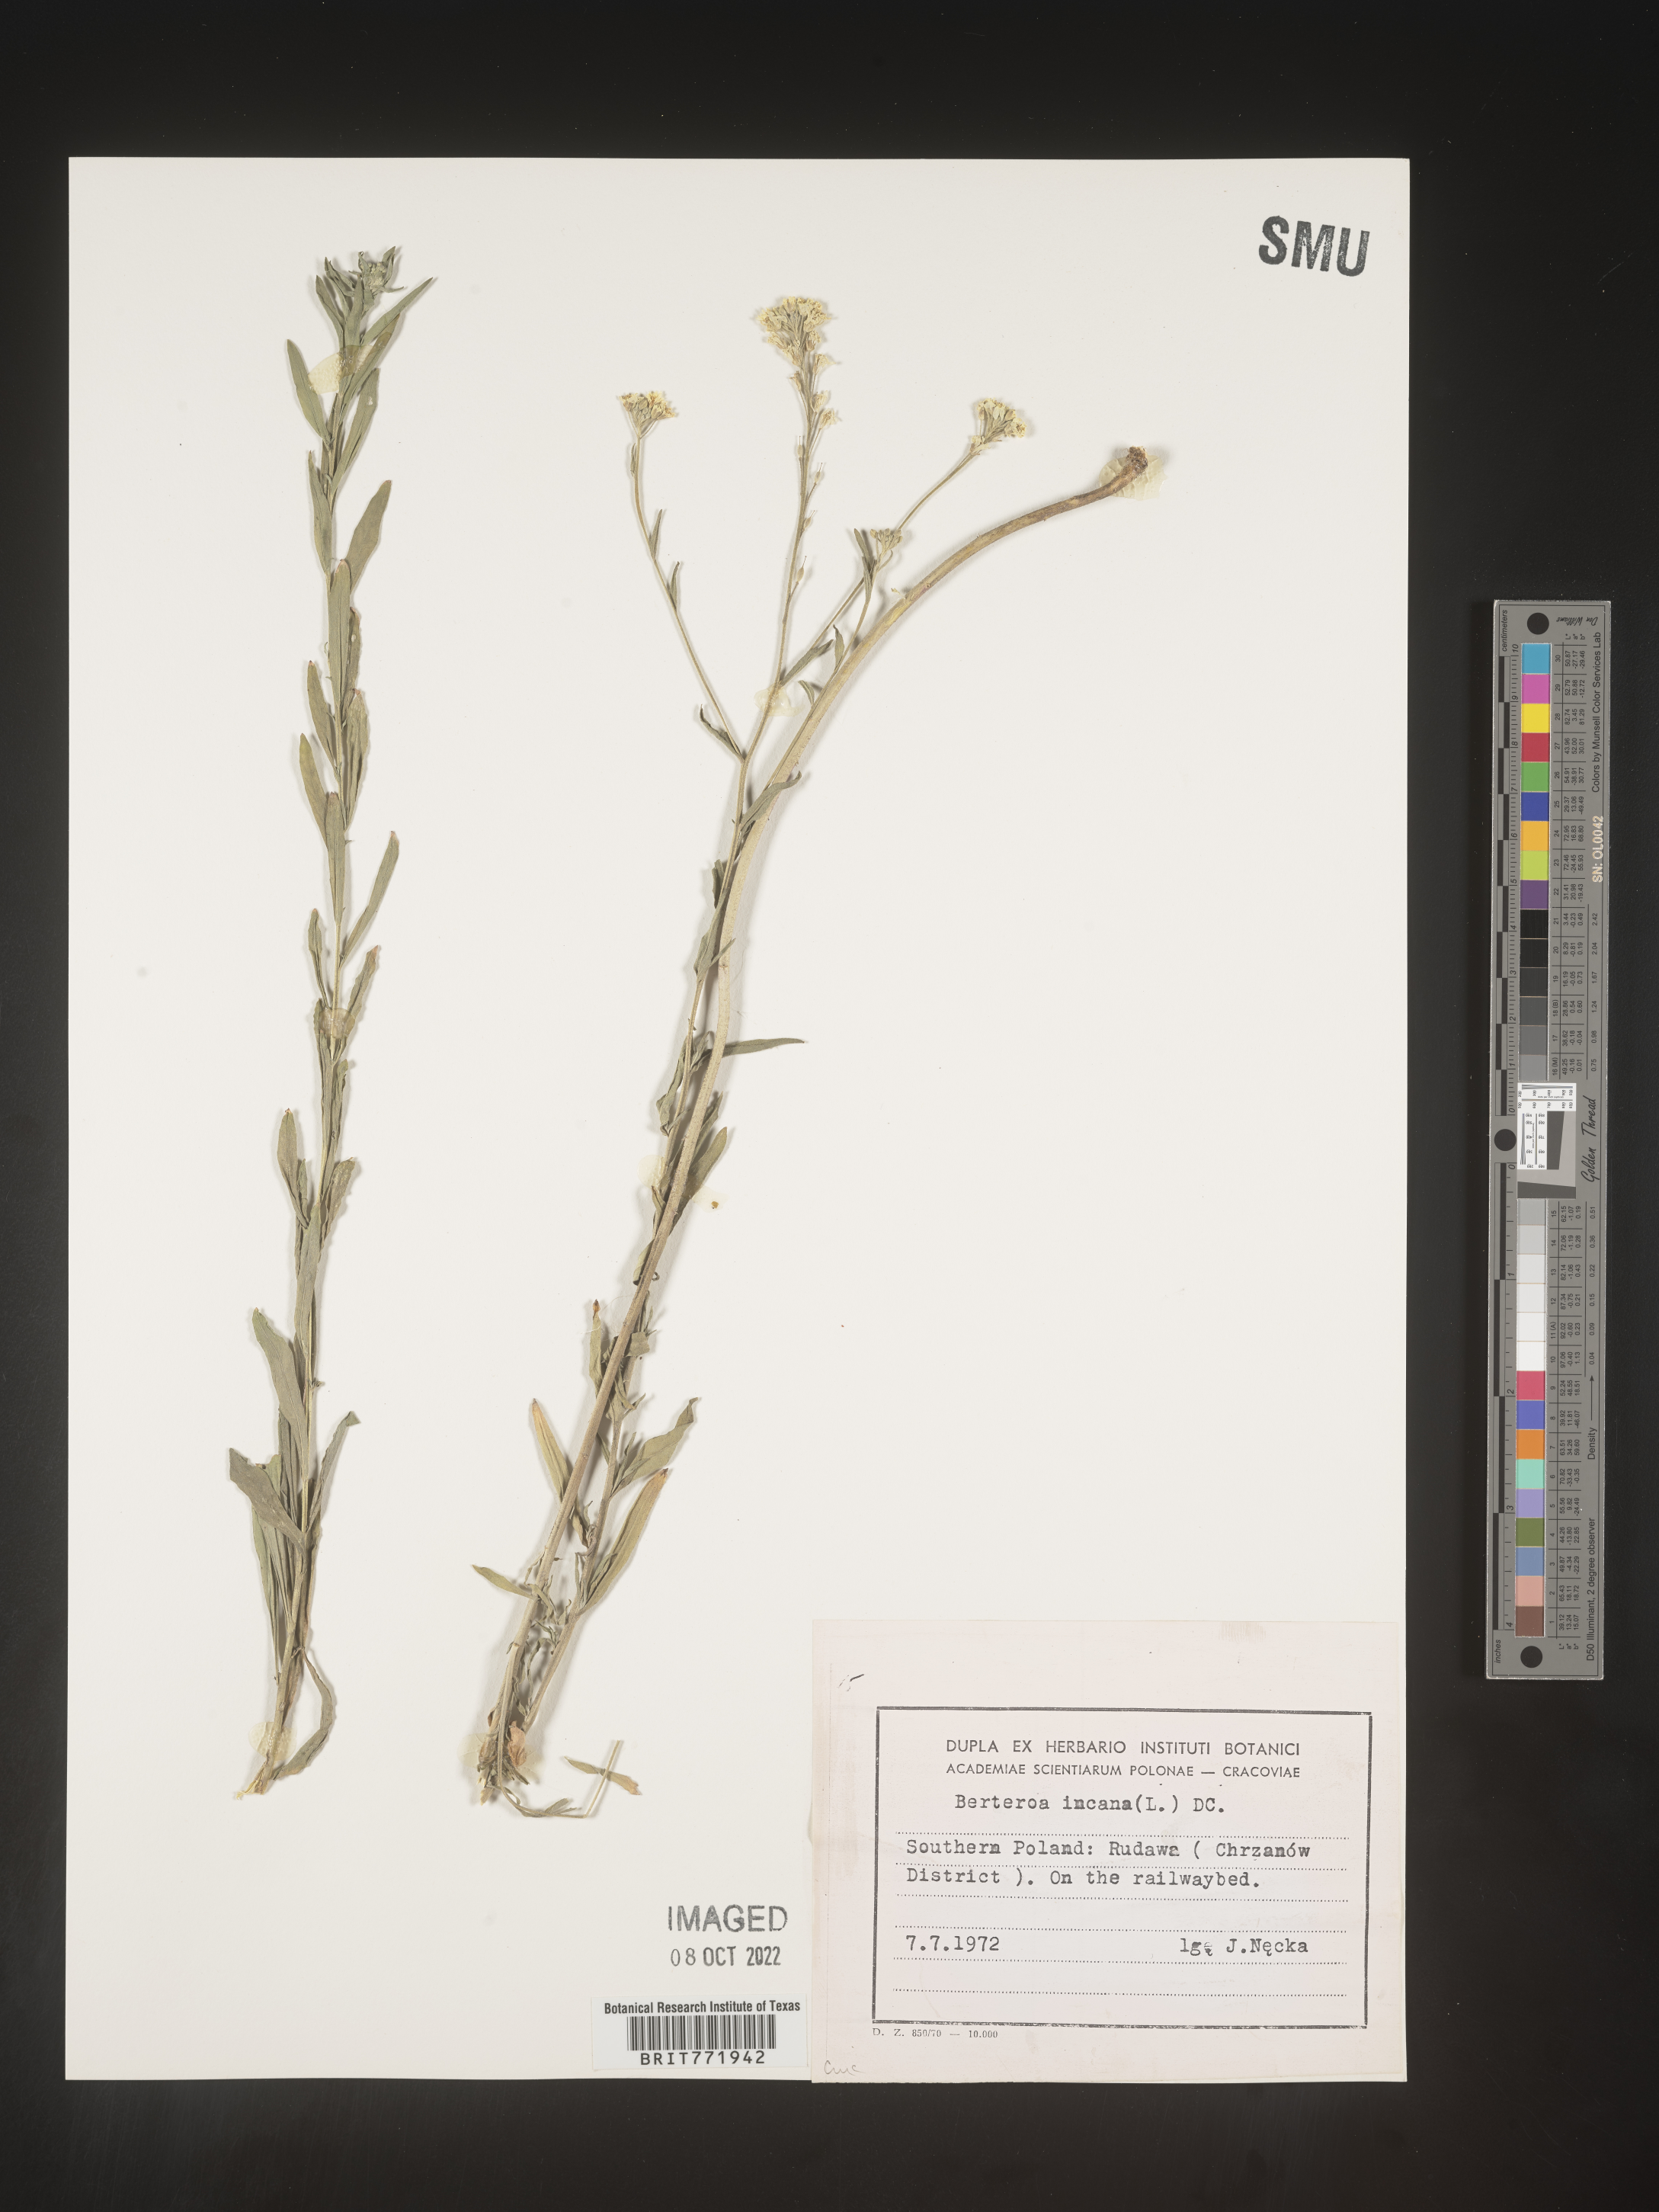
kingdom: Plantae
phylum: Tracheophyta
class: Magnoliopsida
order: Brassicales
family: Brassicaceae
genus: Berteroa
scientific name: Berteroa
